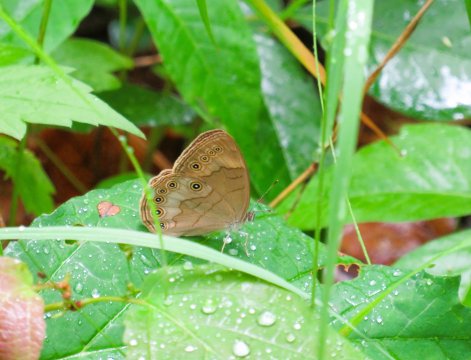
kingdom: Animalia
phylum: Arthropoda
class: Insecta
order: Lepidoptera
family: Nymphalidae
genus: Lethe
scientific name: Lethe eurydice
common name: Appalachian Eyed Brown
